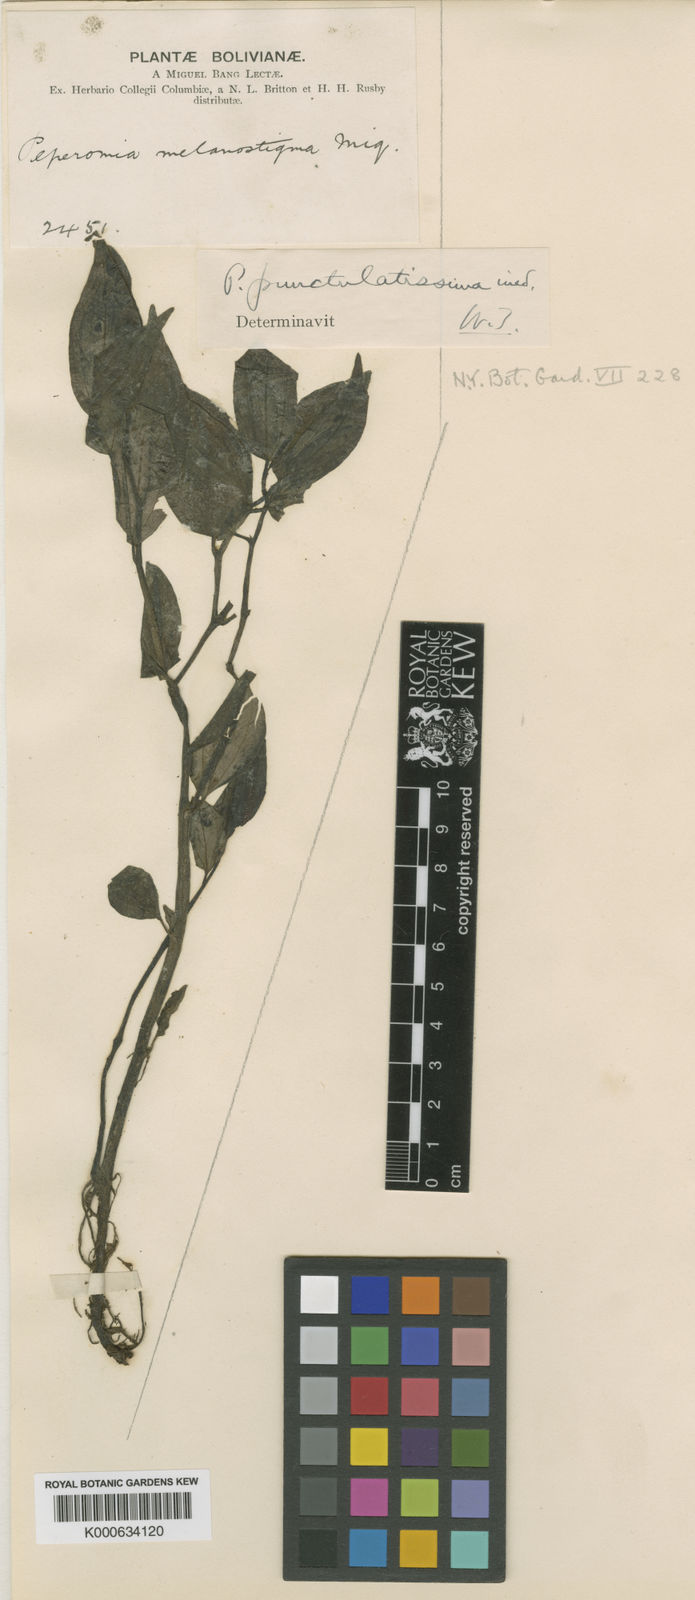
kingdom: Plantae
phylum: Tracheophyta
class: Magnoliopsida
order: Piperales
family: Piperaceae
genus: Peperomia
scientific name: Peperomia punctulatissima
